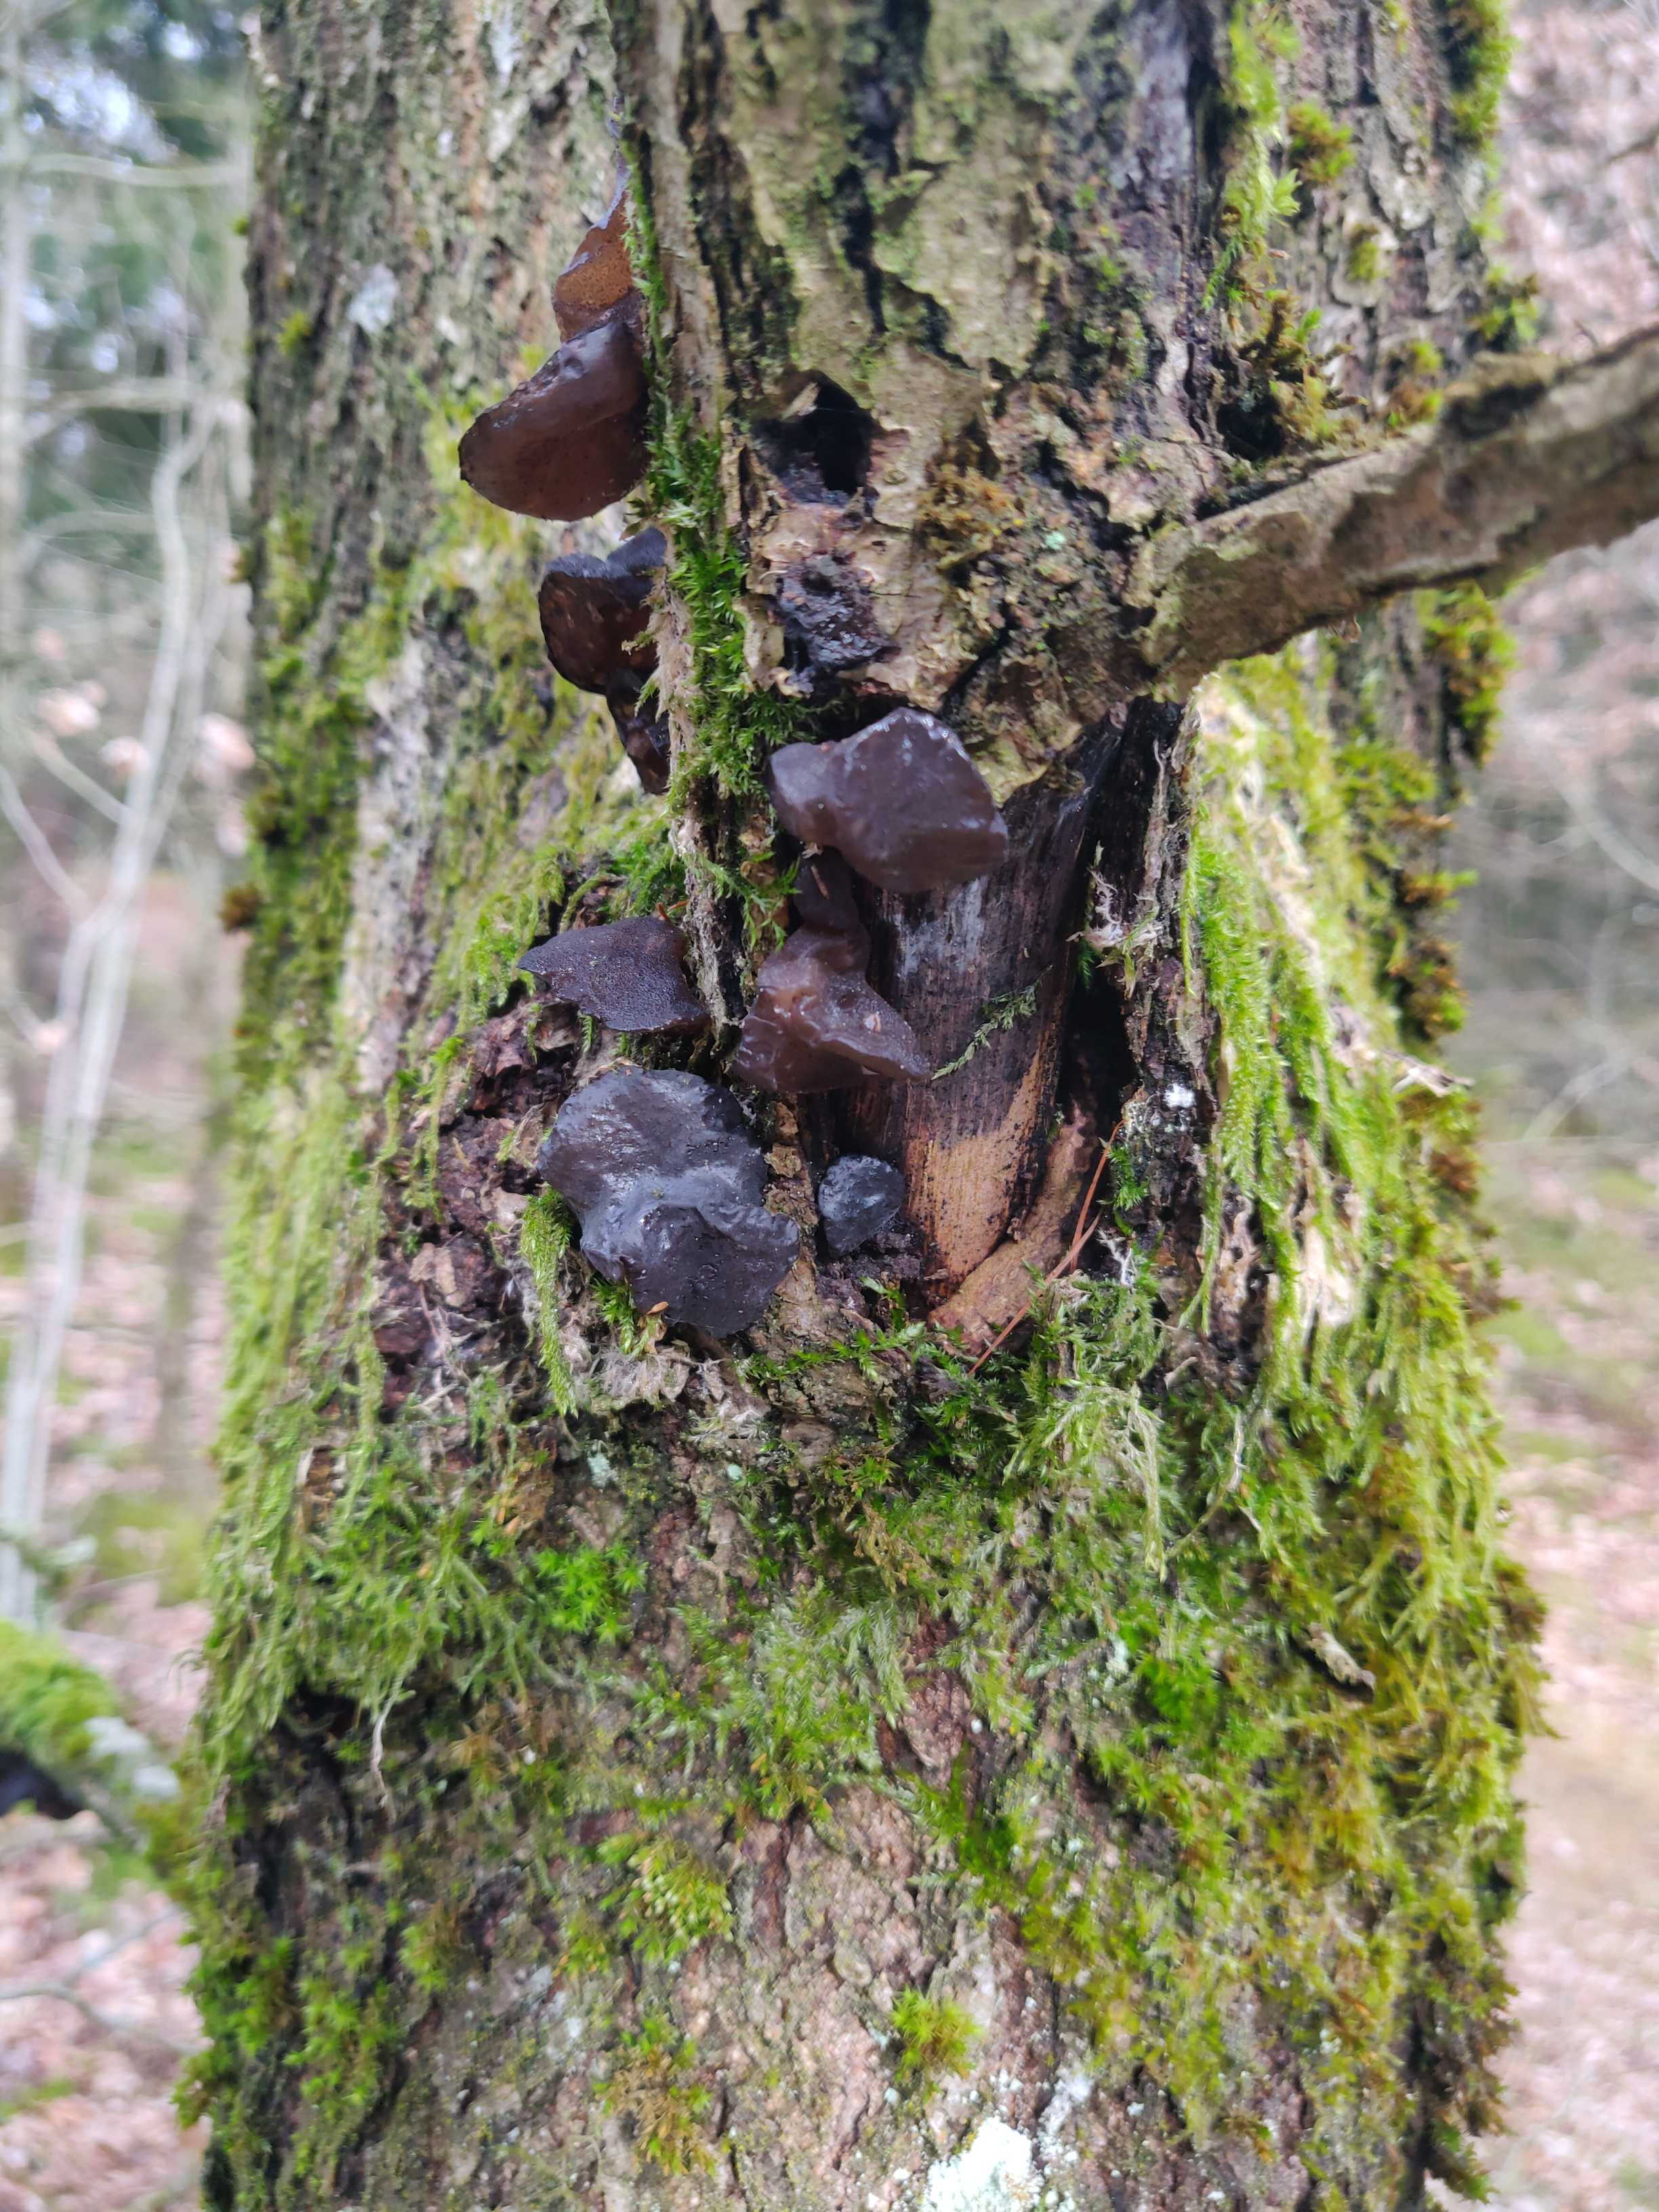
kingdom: Fungi
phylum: Basidiomycota
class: Agaricomycetes
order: Auriculariales
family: Auriculariaceae
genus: Exidia
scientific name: Exidia glandulosa
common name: ege-bævretop
